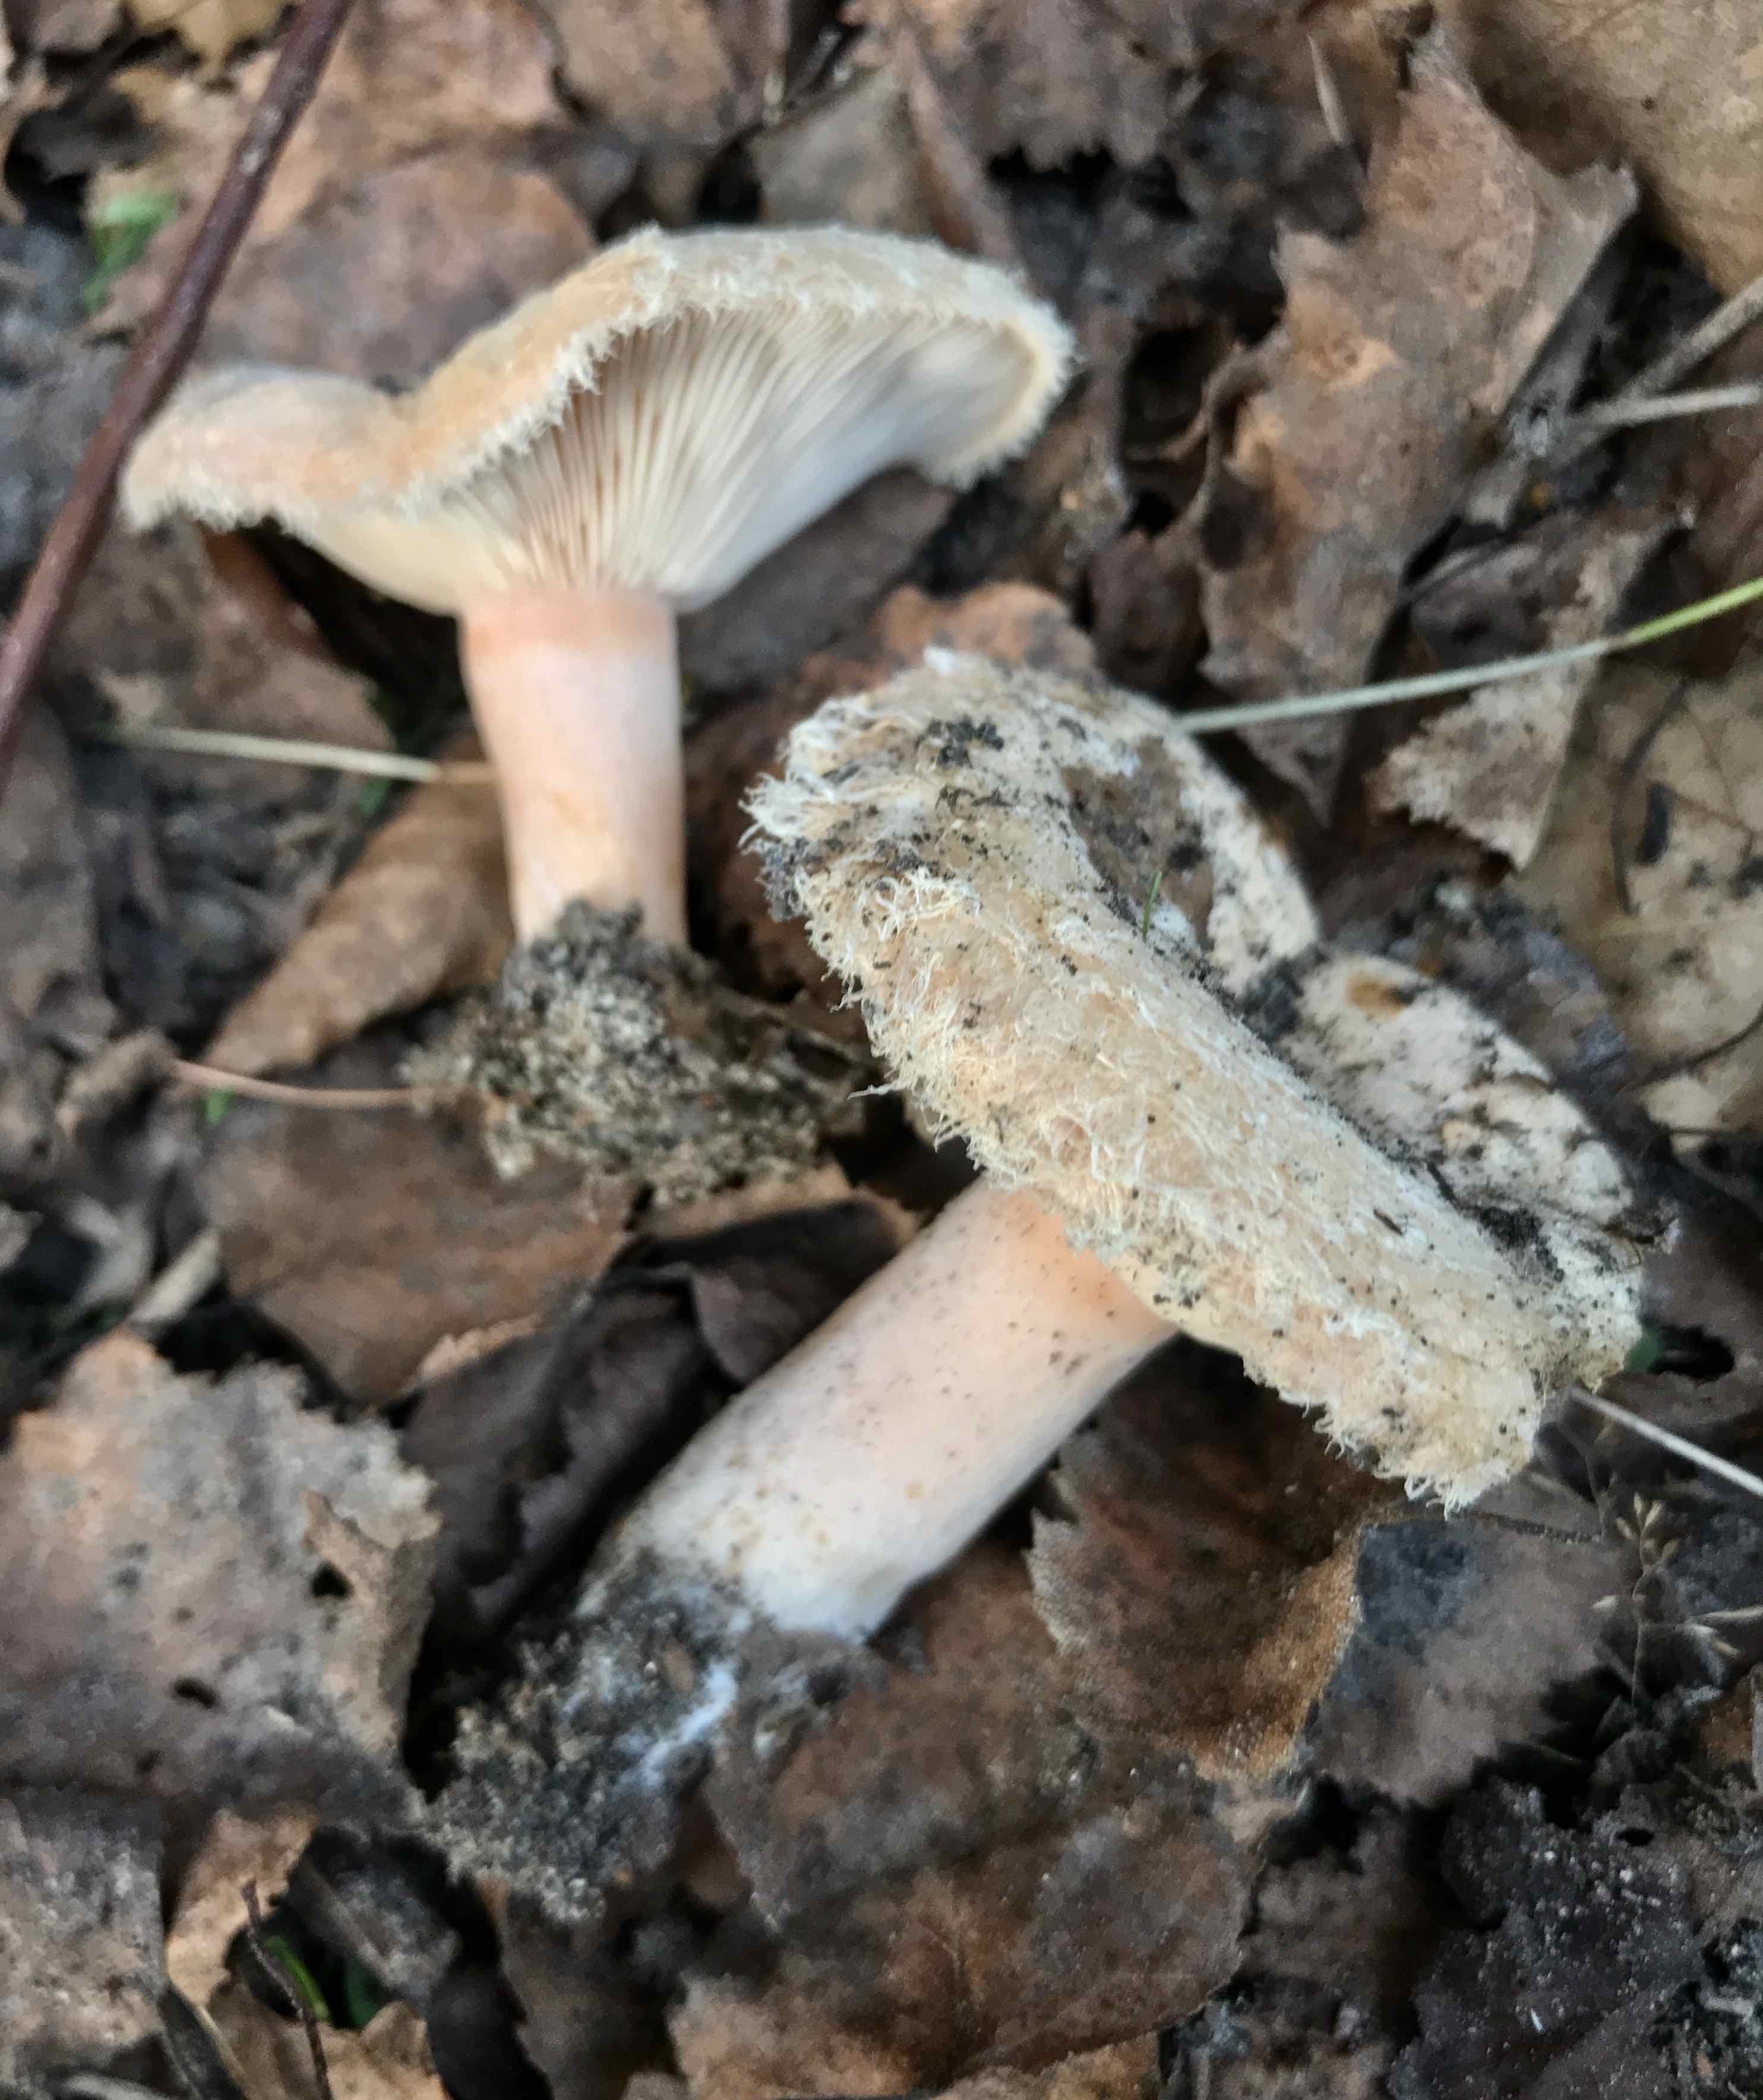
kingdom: Fungi
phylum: Basidiomycota
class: Agaricomycetes
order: Russulales
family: Russulaceae
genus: Lactarius
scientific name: Lactarius torminosus
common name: skægget mælkehat
